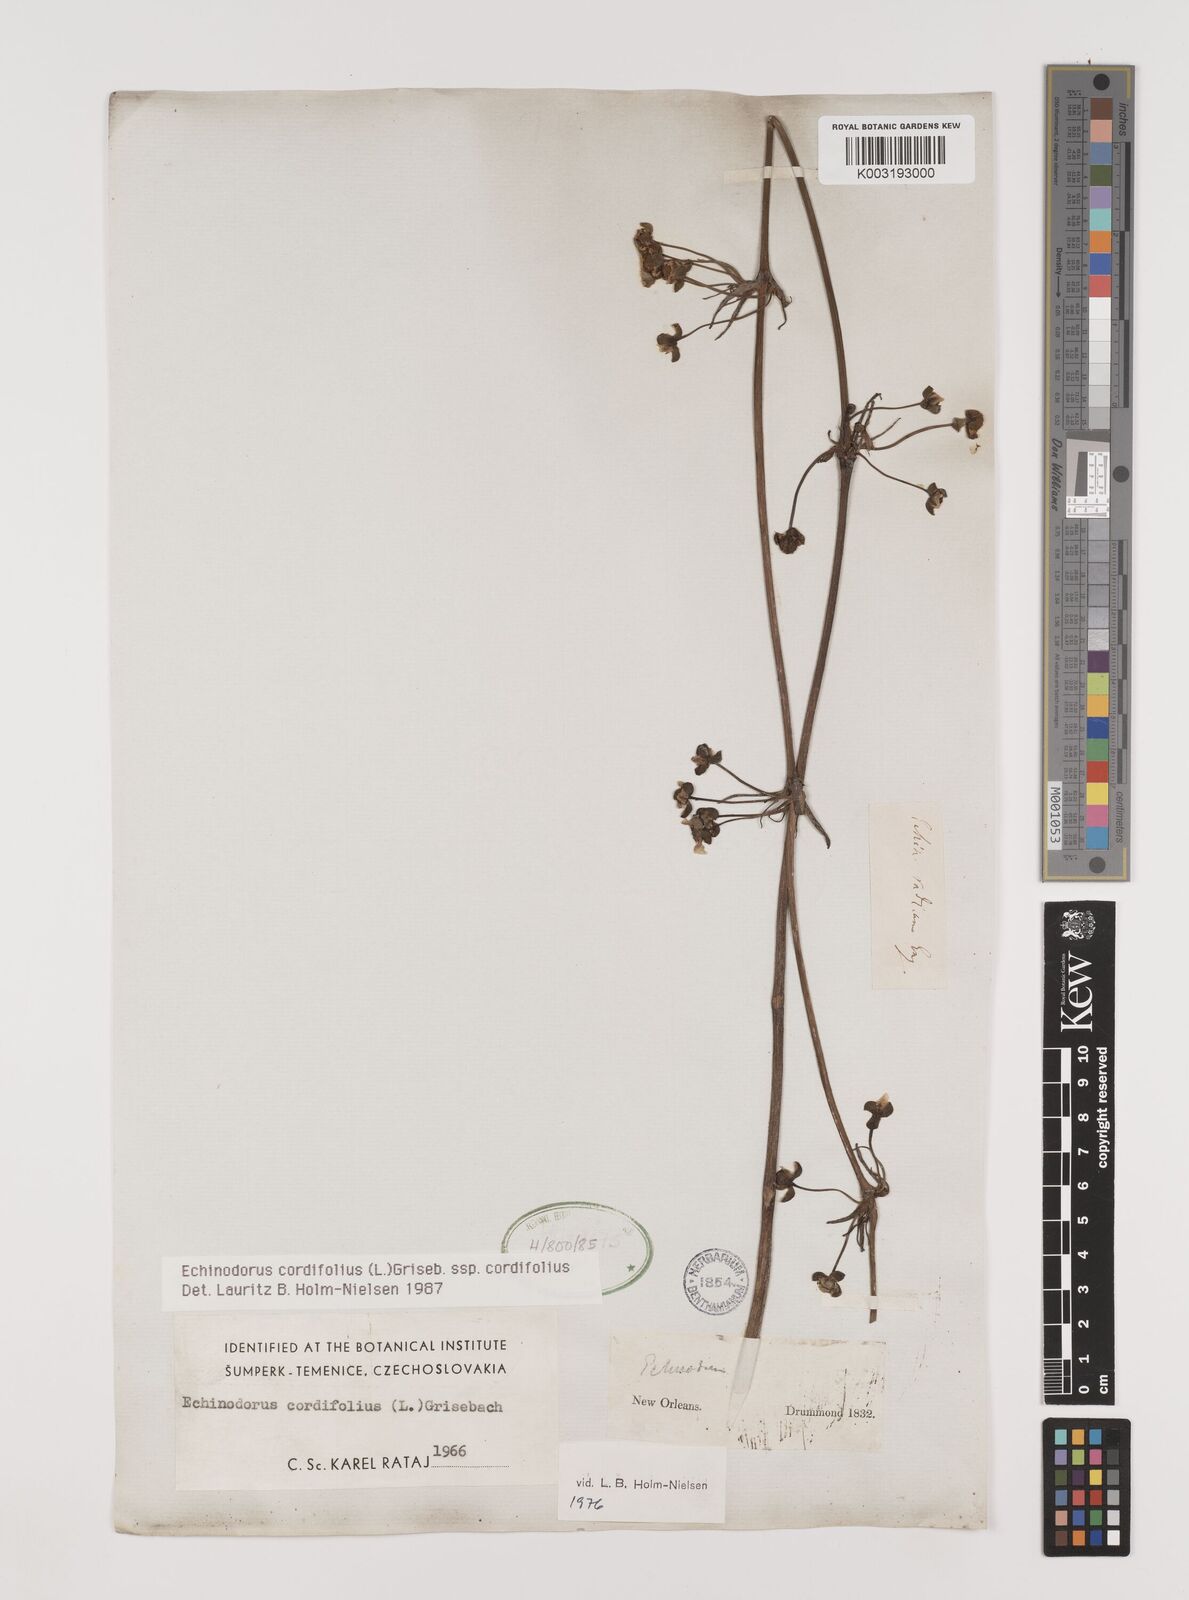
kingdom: Plantae
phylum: Tracheophyta
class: Liliopsida
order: Alismatales
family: Alismataceae
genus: Aquarius
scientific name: Aquarius cordifolius
